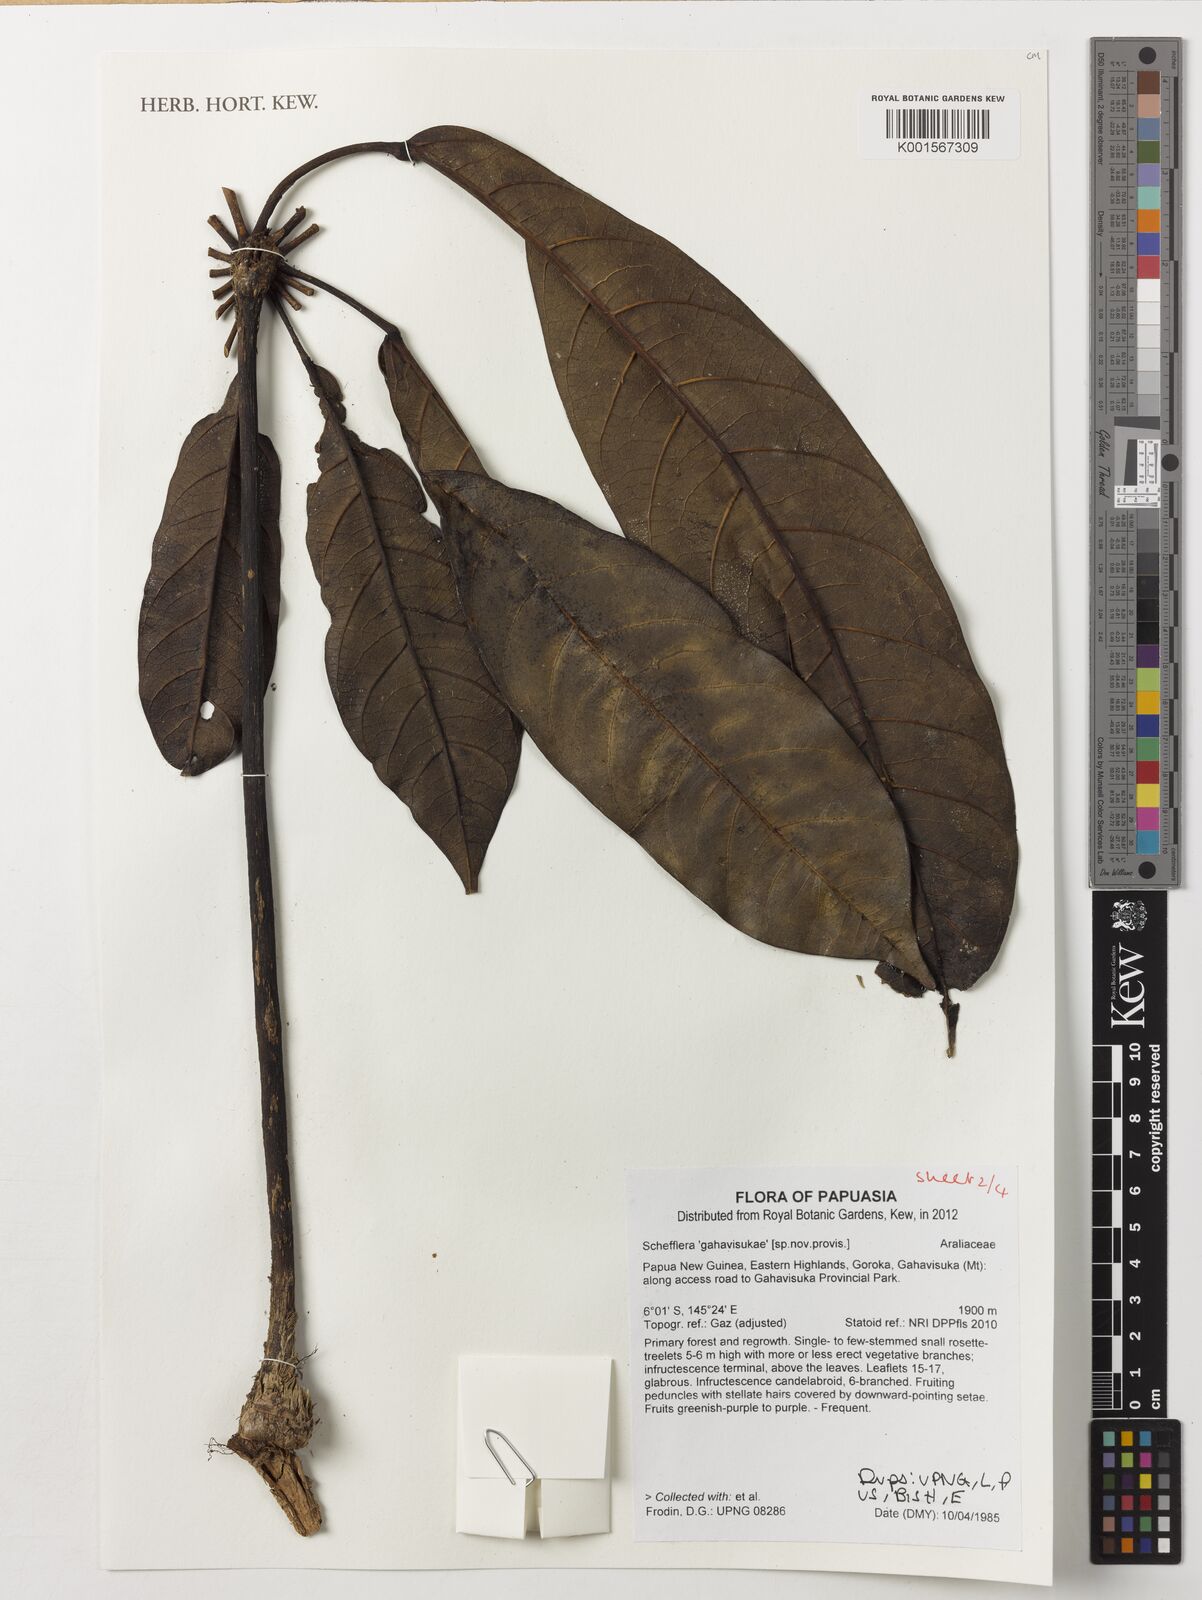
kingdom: Plantae
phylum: Tracheophyta
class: Magnoliopsida
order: Apiales
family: Araliaceae
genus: Schefflera
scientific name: Schefflera
